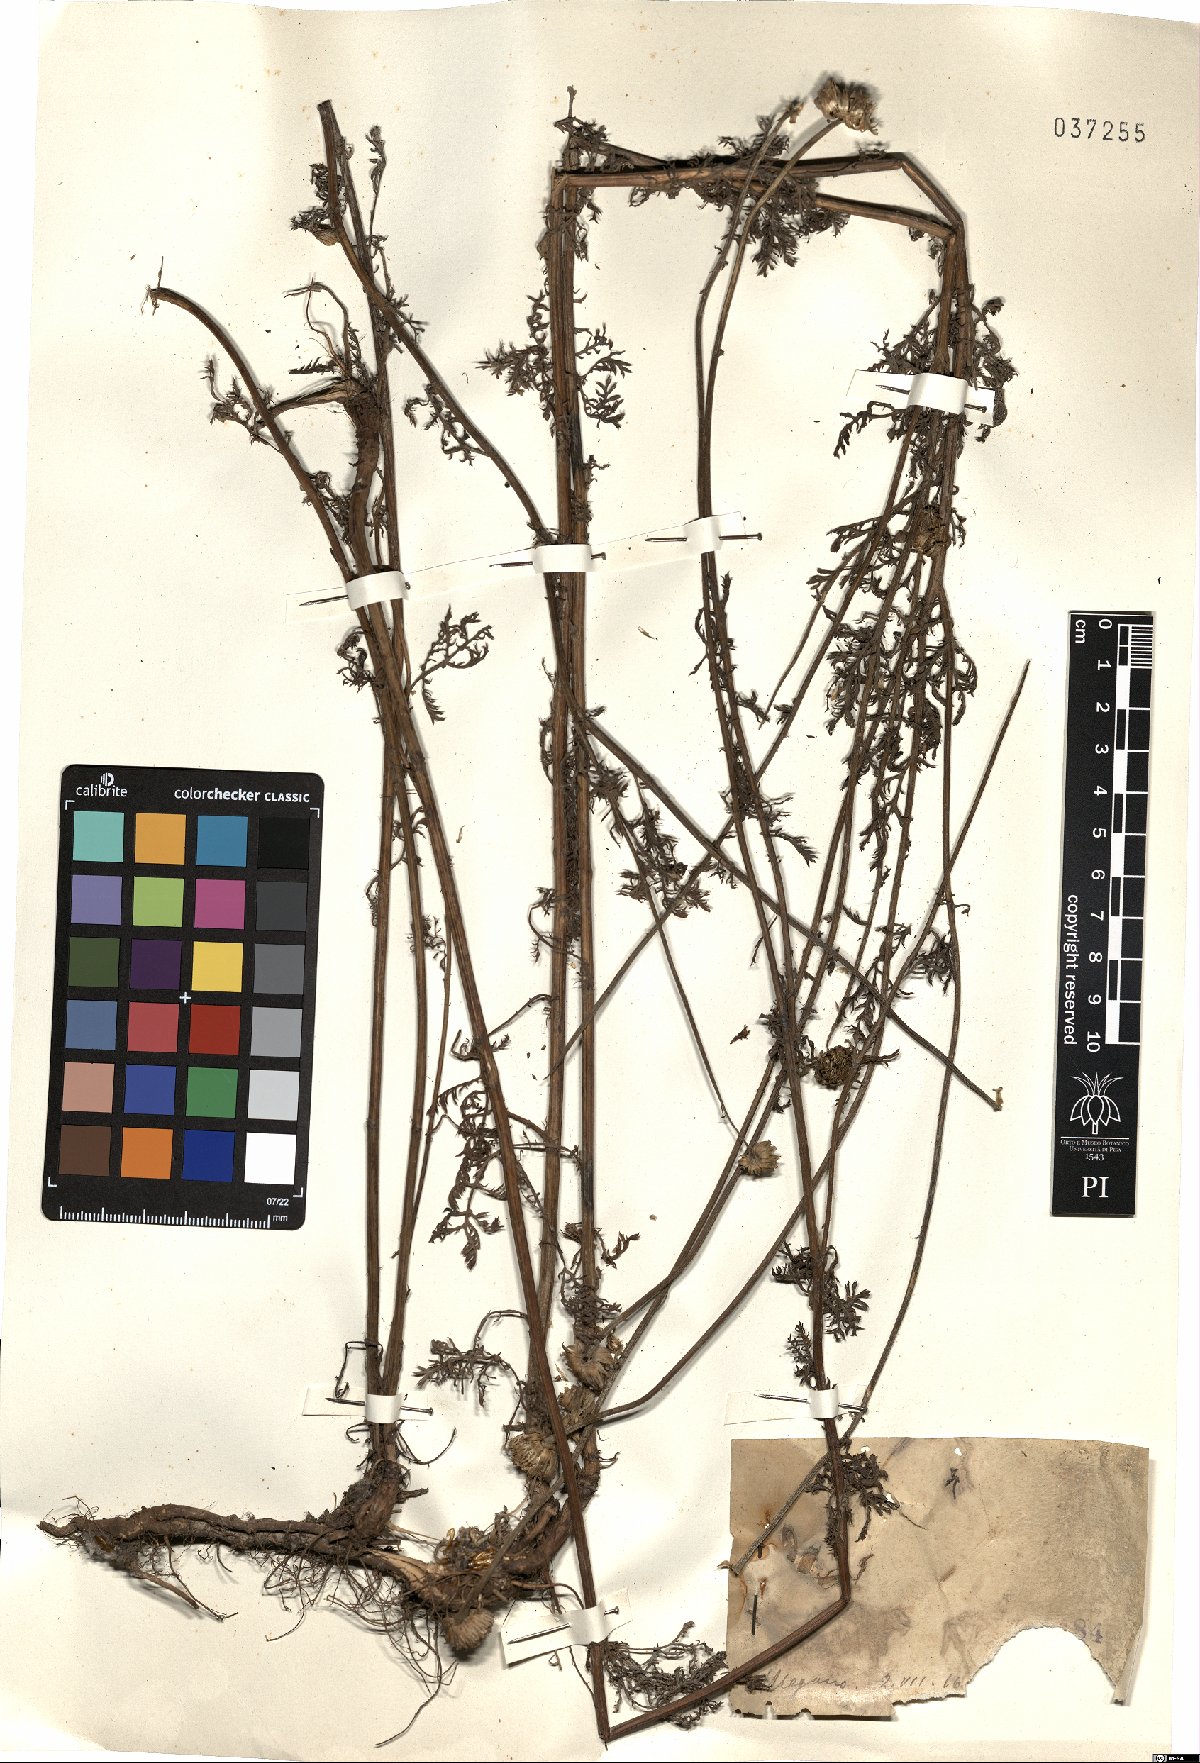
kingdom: Plantae
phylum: Tracheophyta
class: Magnoliopsida
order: Asterales
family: Asteraceae
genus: Anthemis
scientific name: Anthemis
